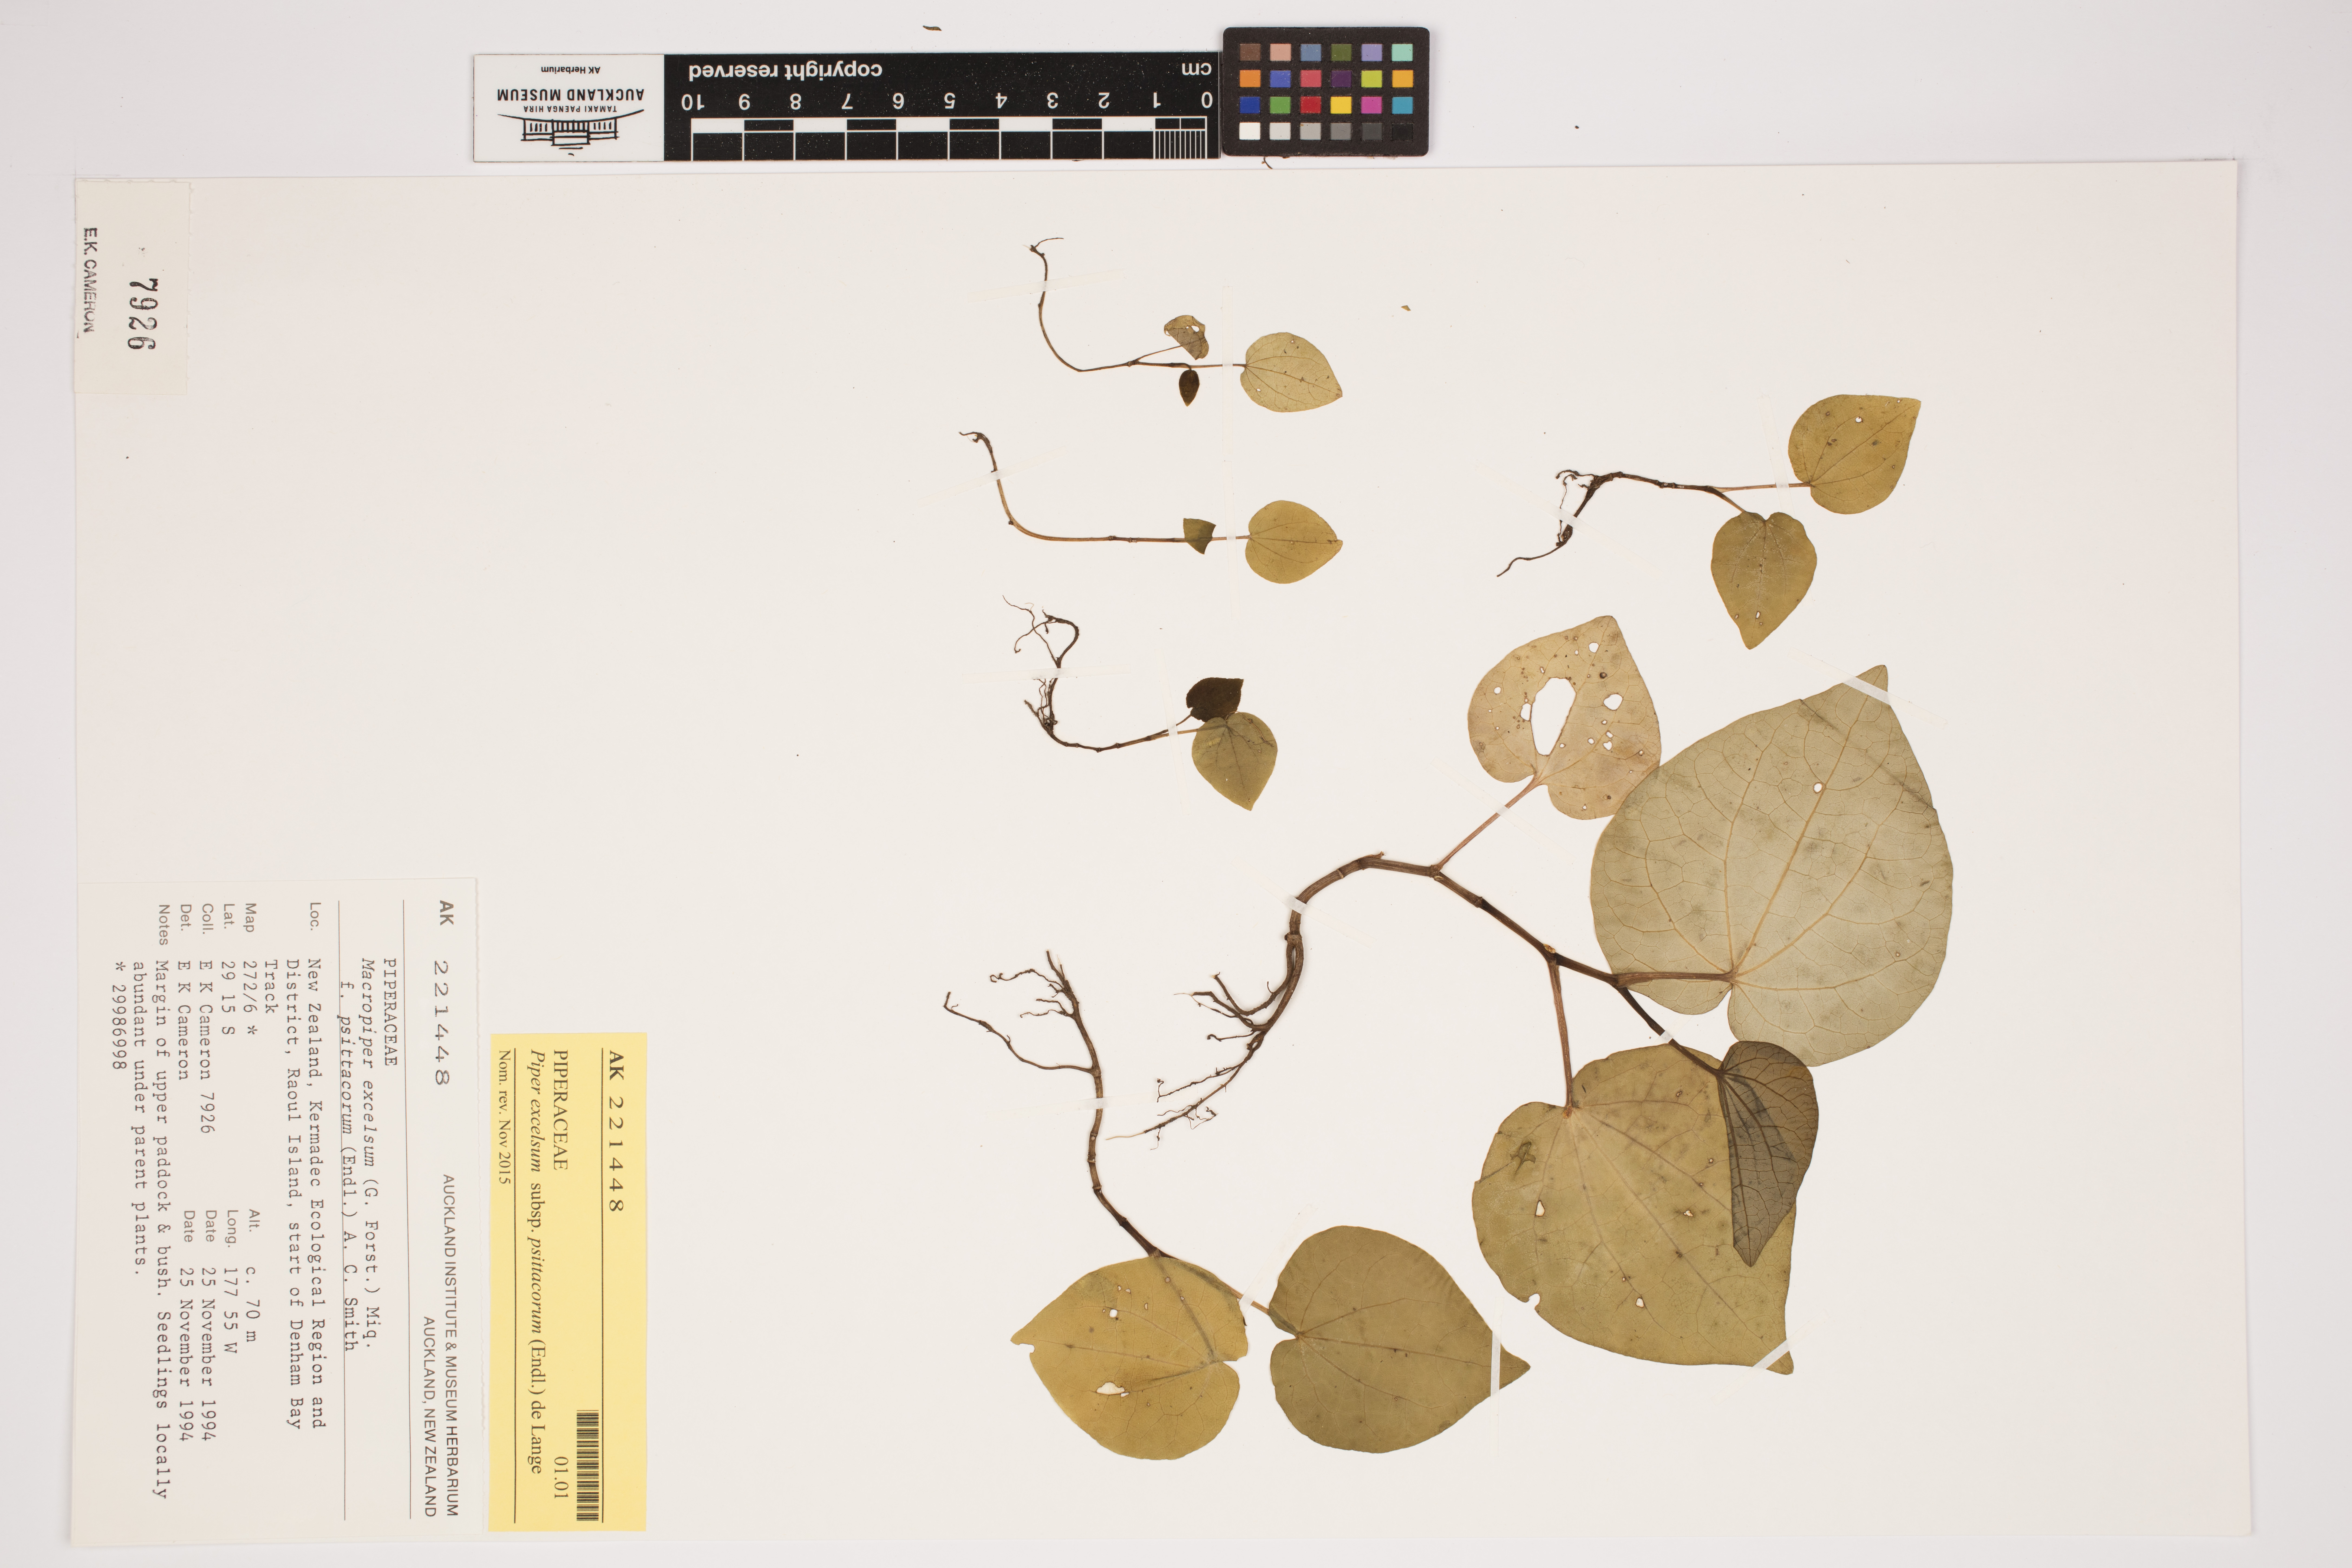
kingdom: Plantae
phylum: Tracheophyta
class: Magnoliopsida
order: Piperales
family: Piperaceae
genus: Macropiper
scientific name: Macropiper excelsum
